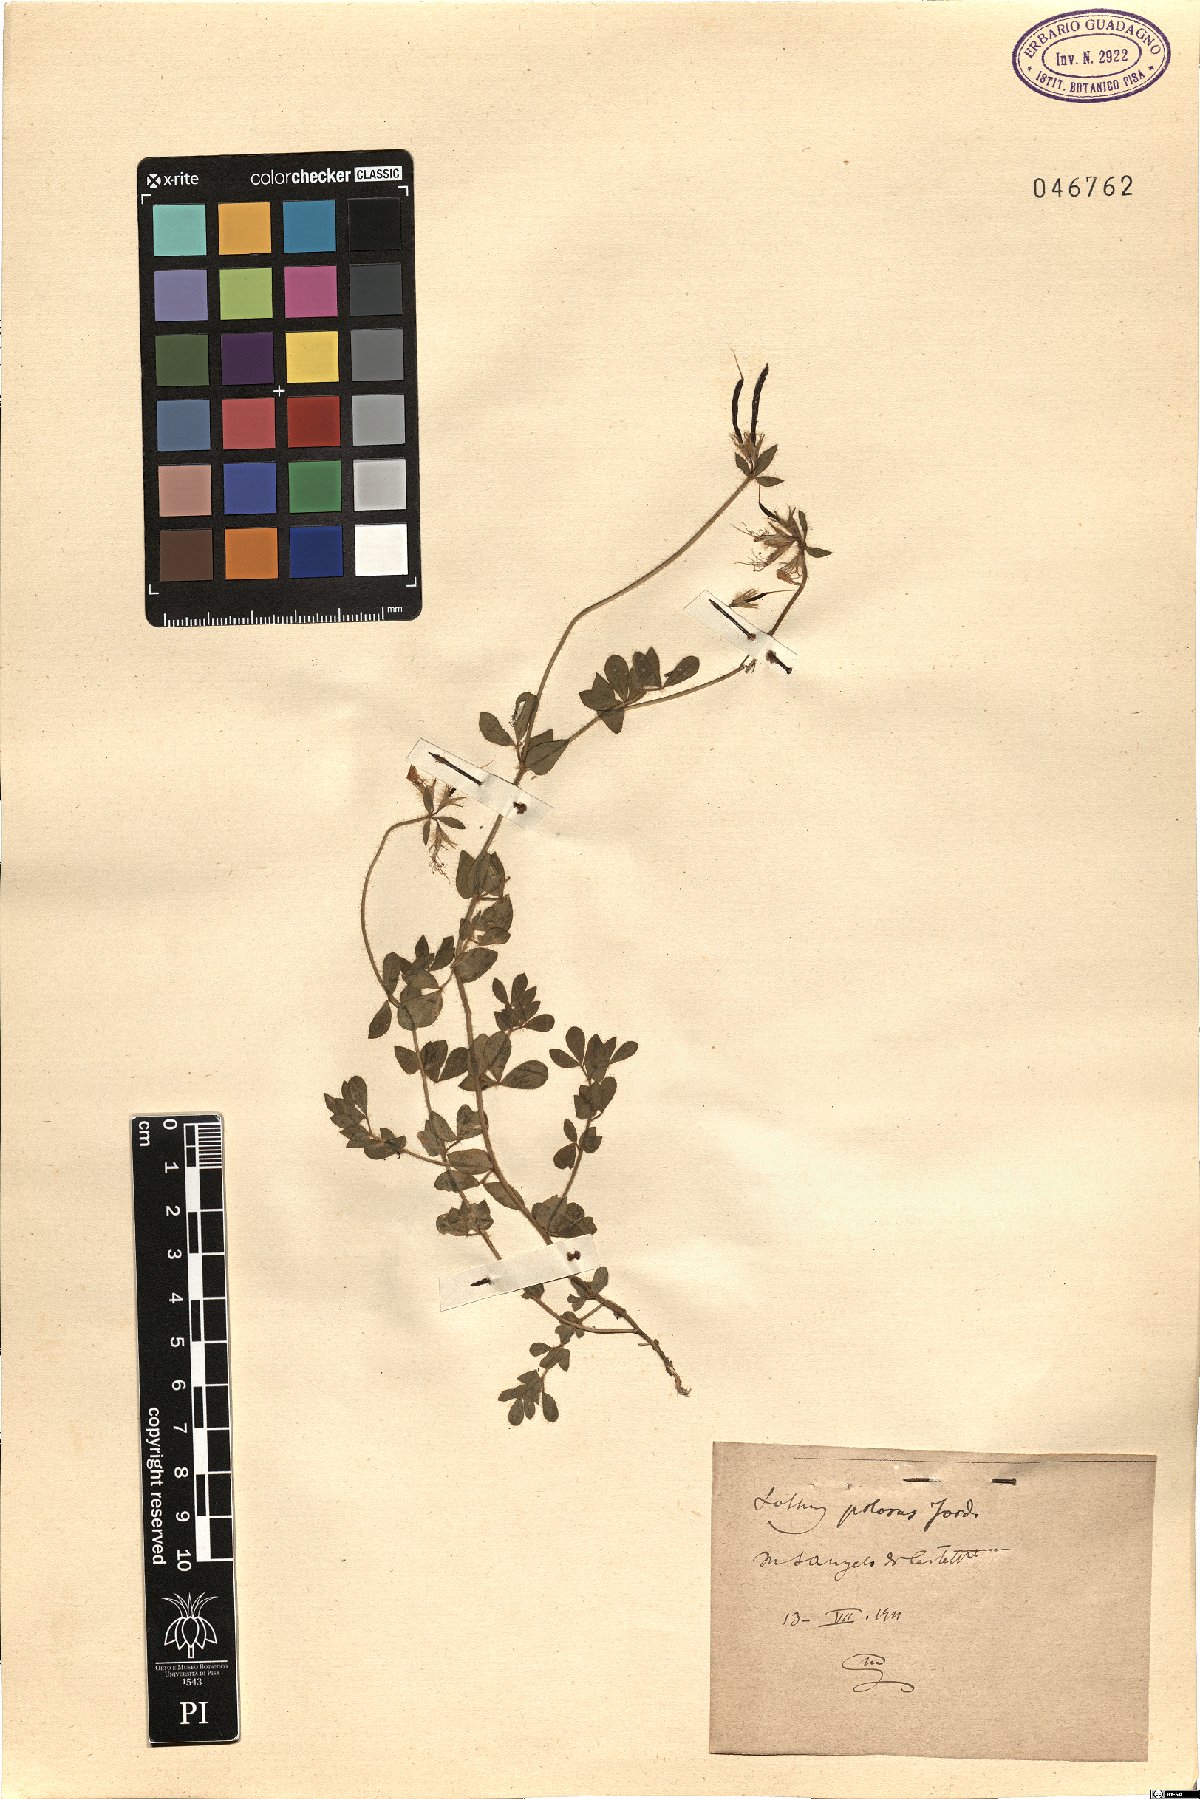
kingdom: Plantae
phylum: Tracheophyta
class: Magnoliopsida
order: Fabales
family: Fabaceae
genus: Lotus
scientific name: Lotus corniculatus
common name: Common bird's-foot-trefoil
